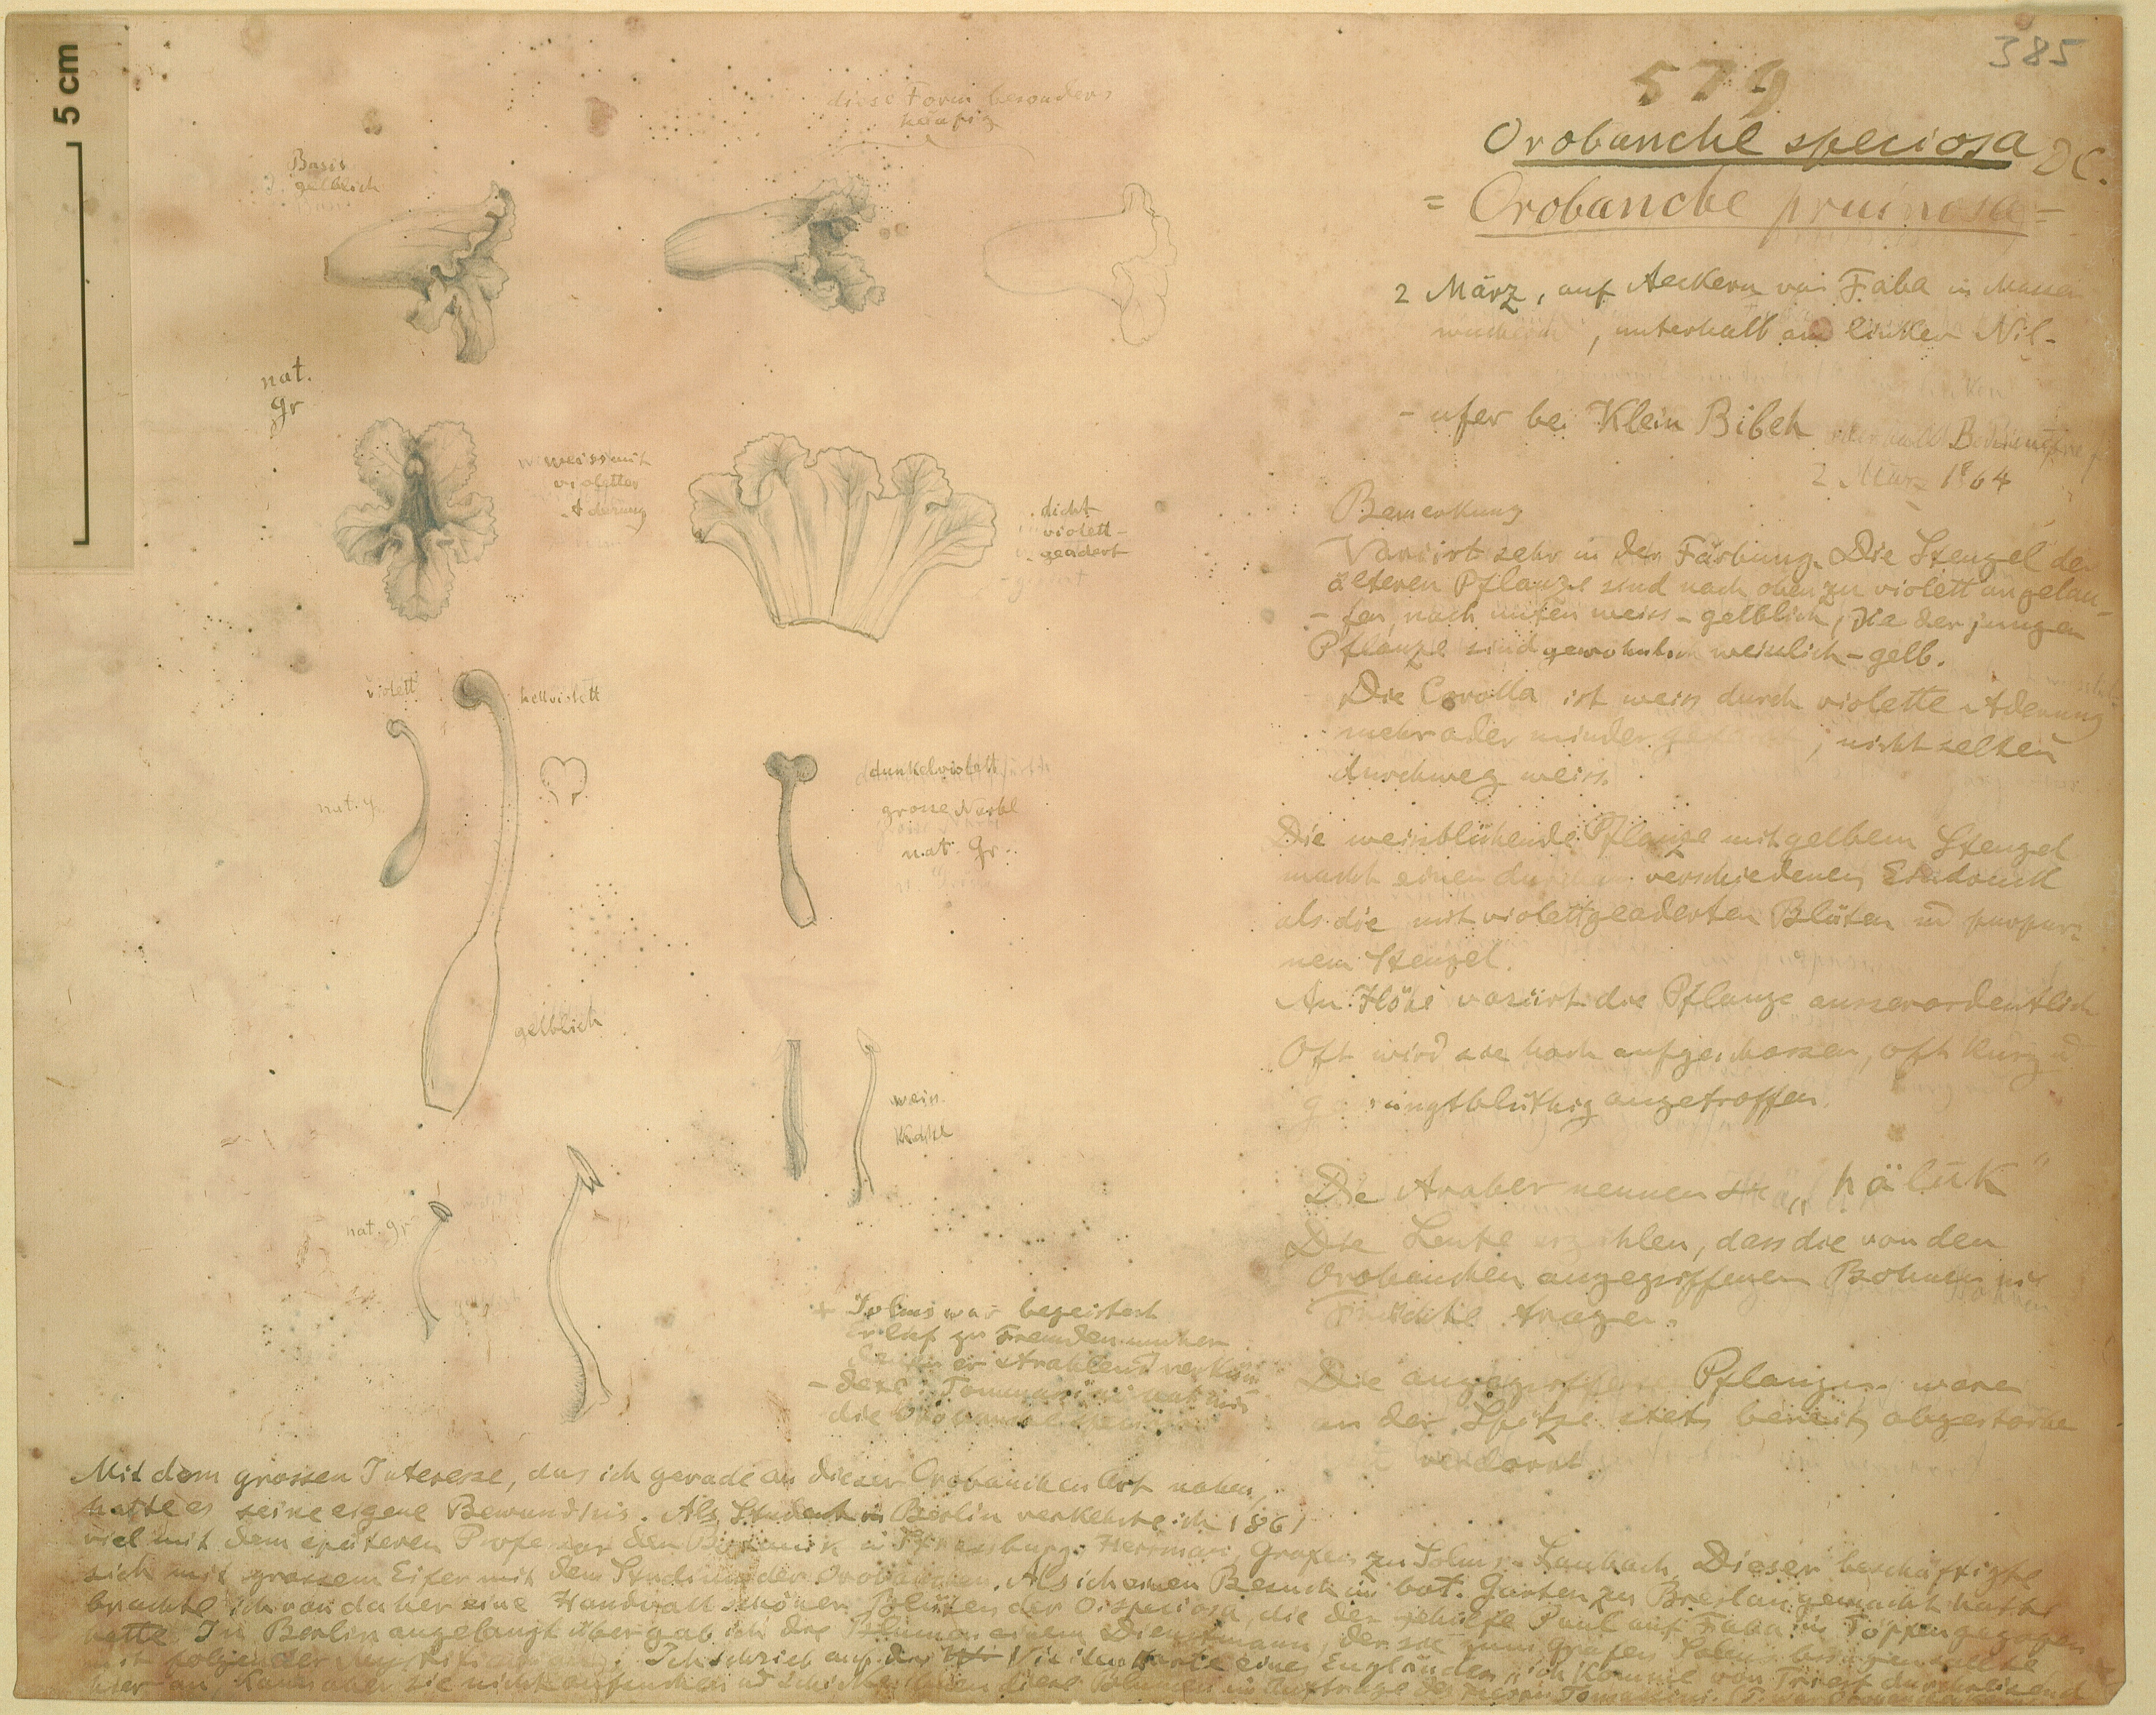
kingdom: Plantae
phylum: Tracheophyta
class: Magnoliopsida
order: Lamiales
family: Orobanchaceae
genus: Orobanche
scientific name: Orobanche crenata
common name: Bean broomrape
